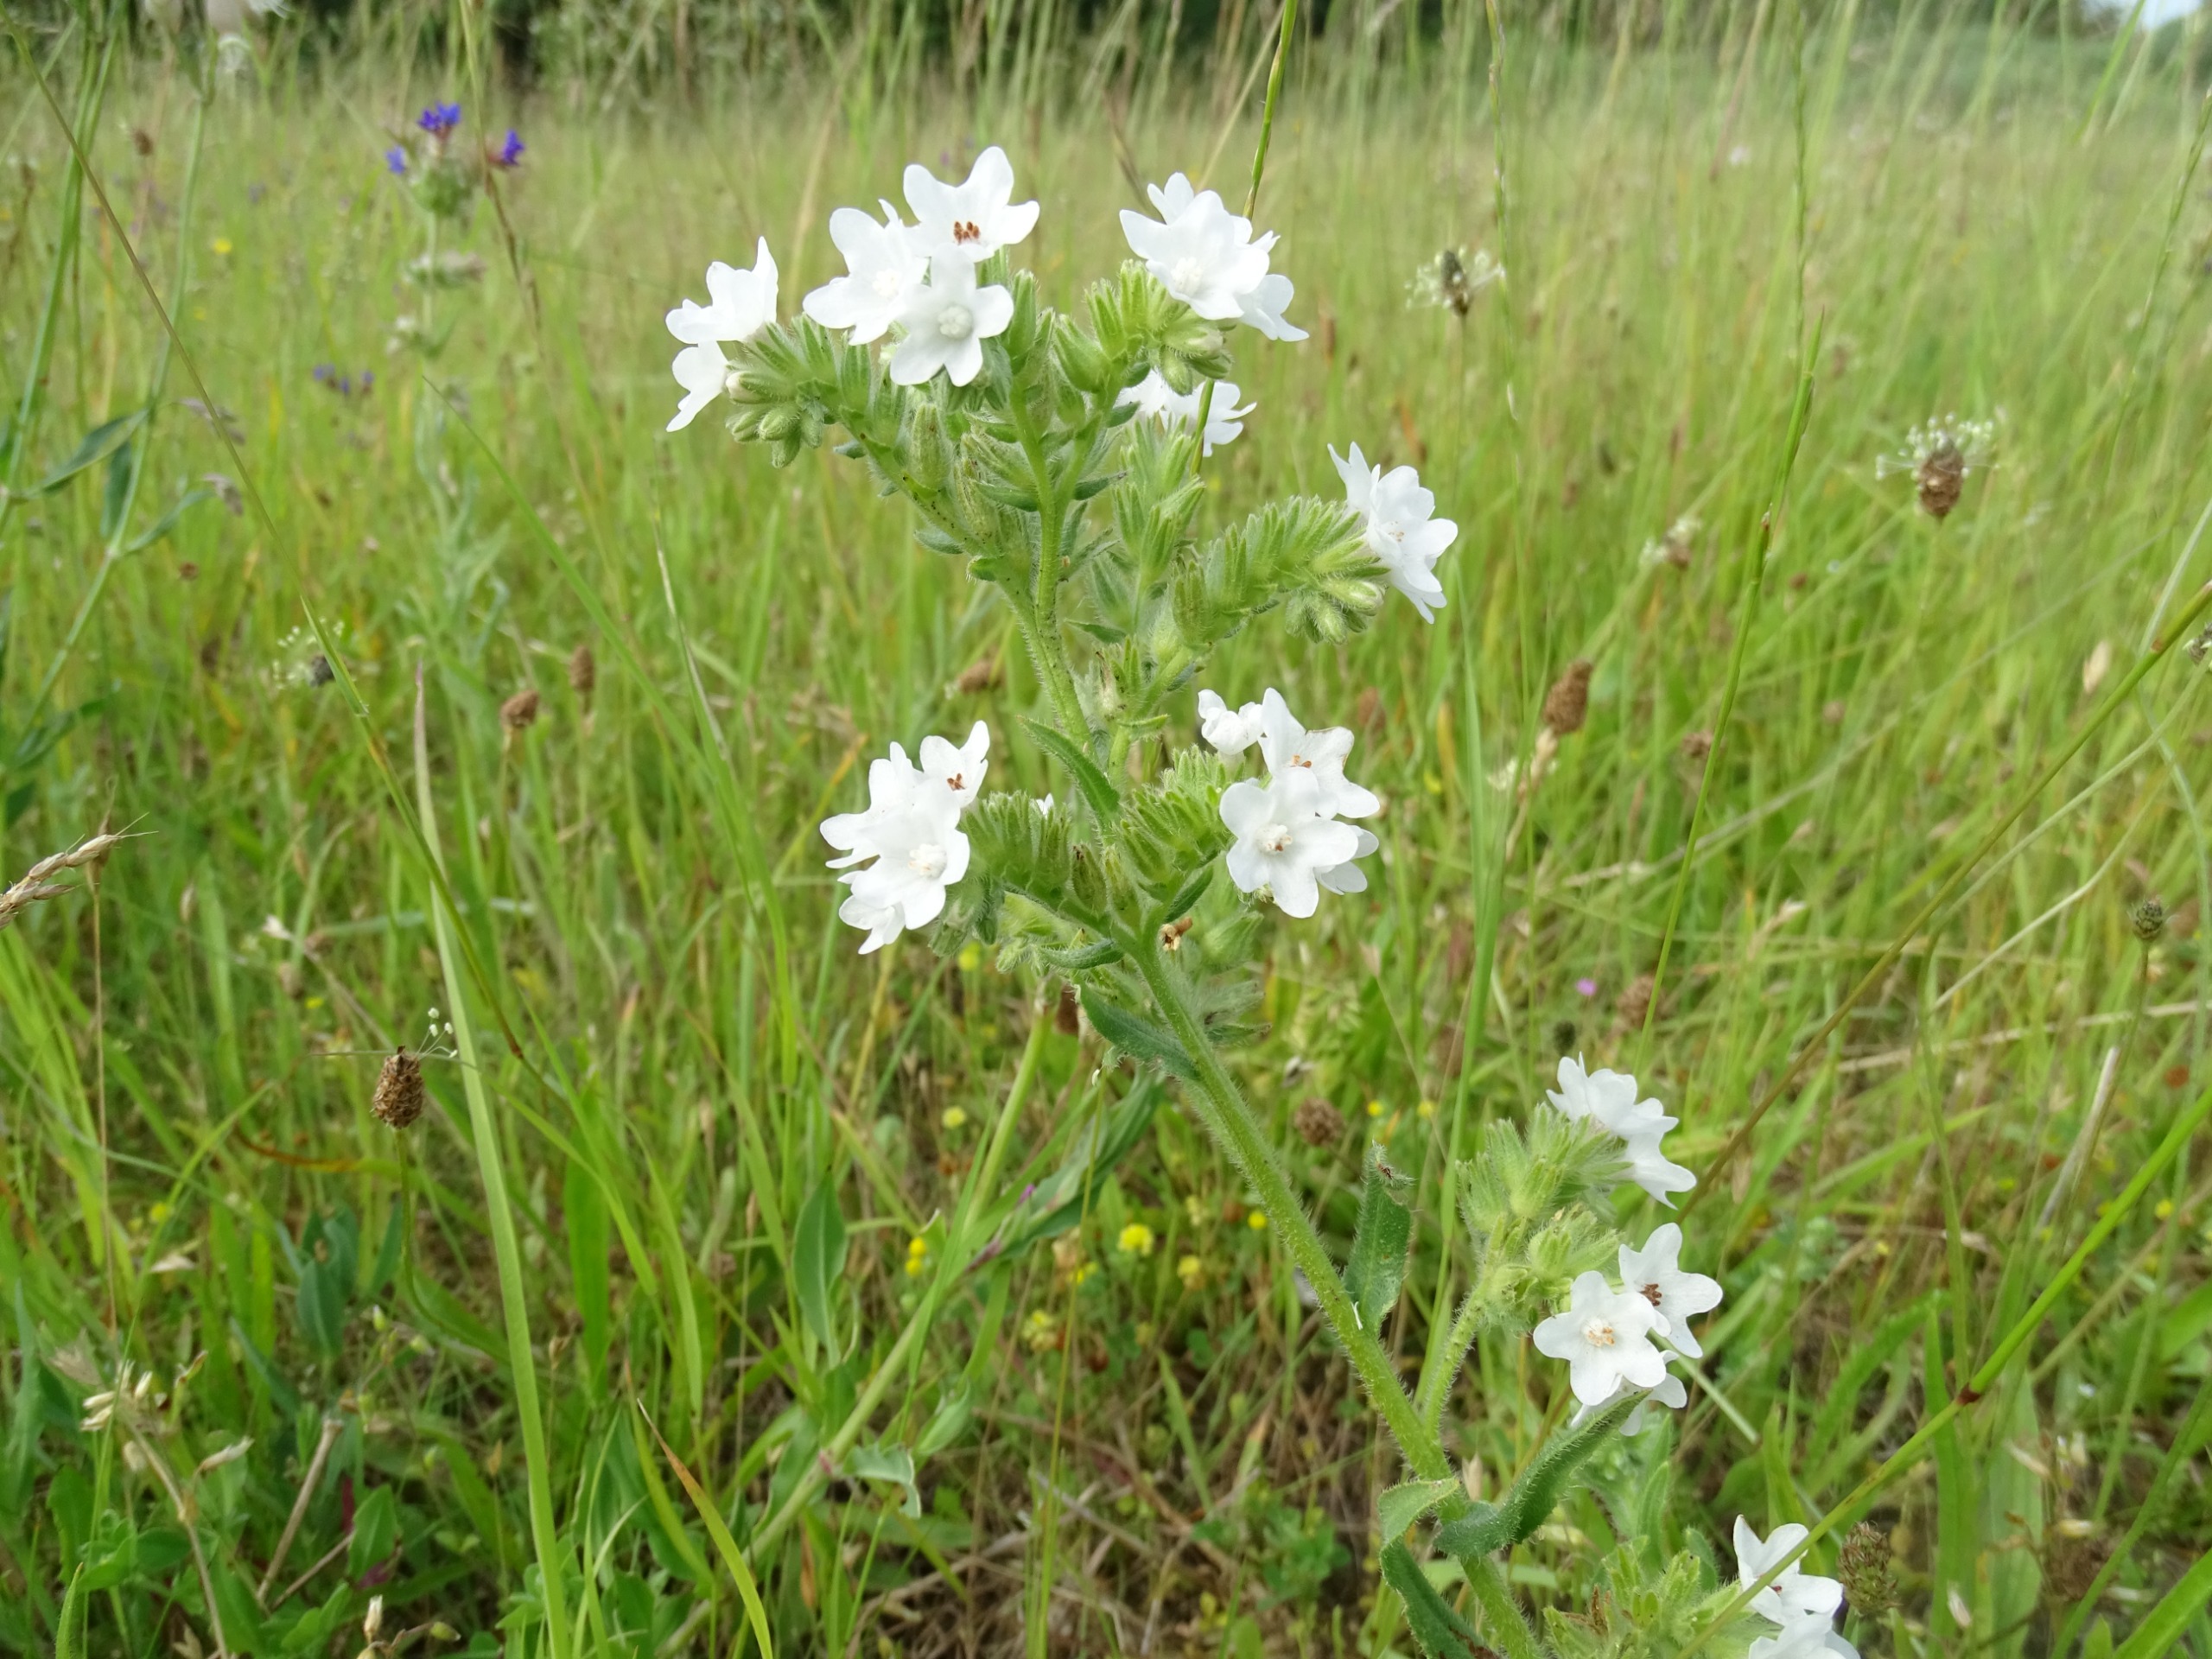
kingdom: Plantae
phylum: Tracheophyta
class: Magnoliopsida
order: Boraginales
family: Boraginaceae
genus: Anchusa
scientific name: Anchusa officinalis
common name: Læge-oksetunge
